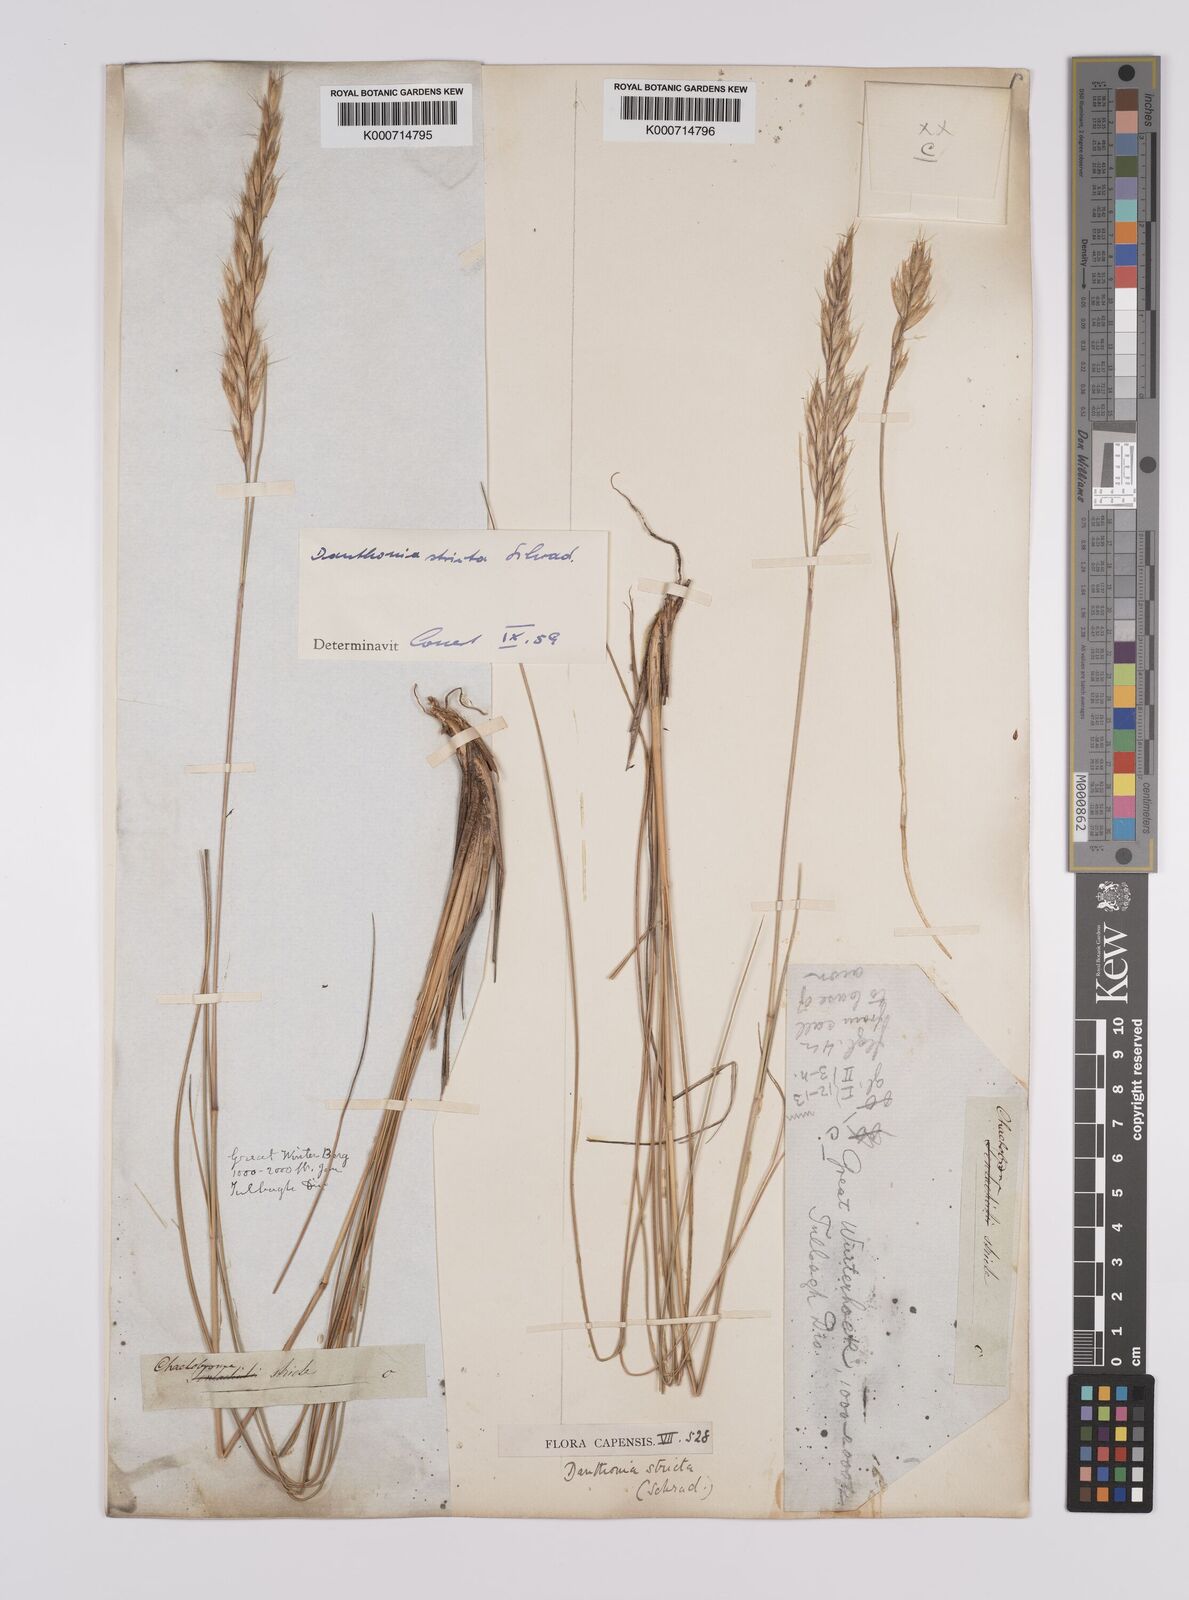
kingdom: Plantae
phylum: Tracheophyta
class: Liliopsida
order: Poales
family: Poaceae
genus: Rytidosperma
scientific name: Rytidosperma
